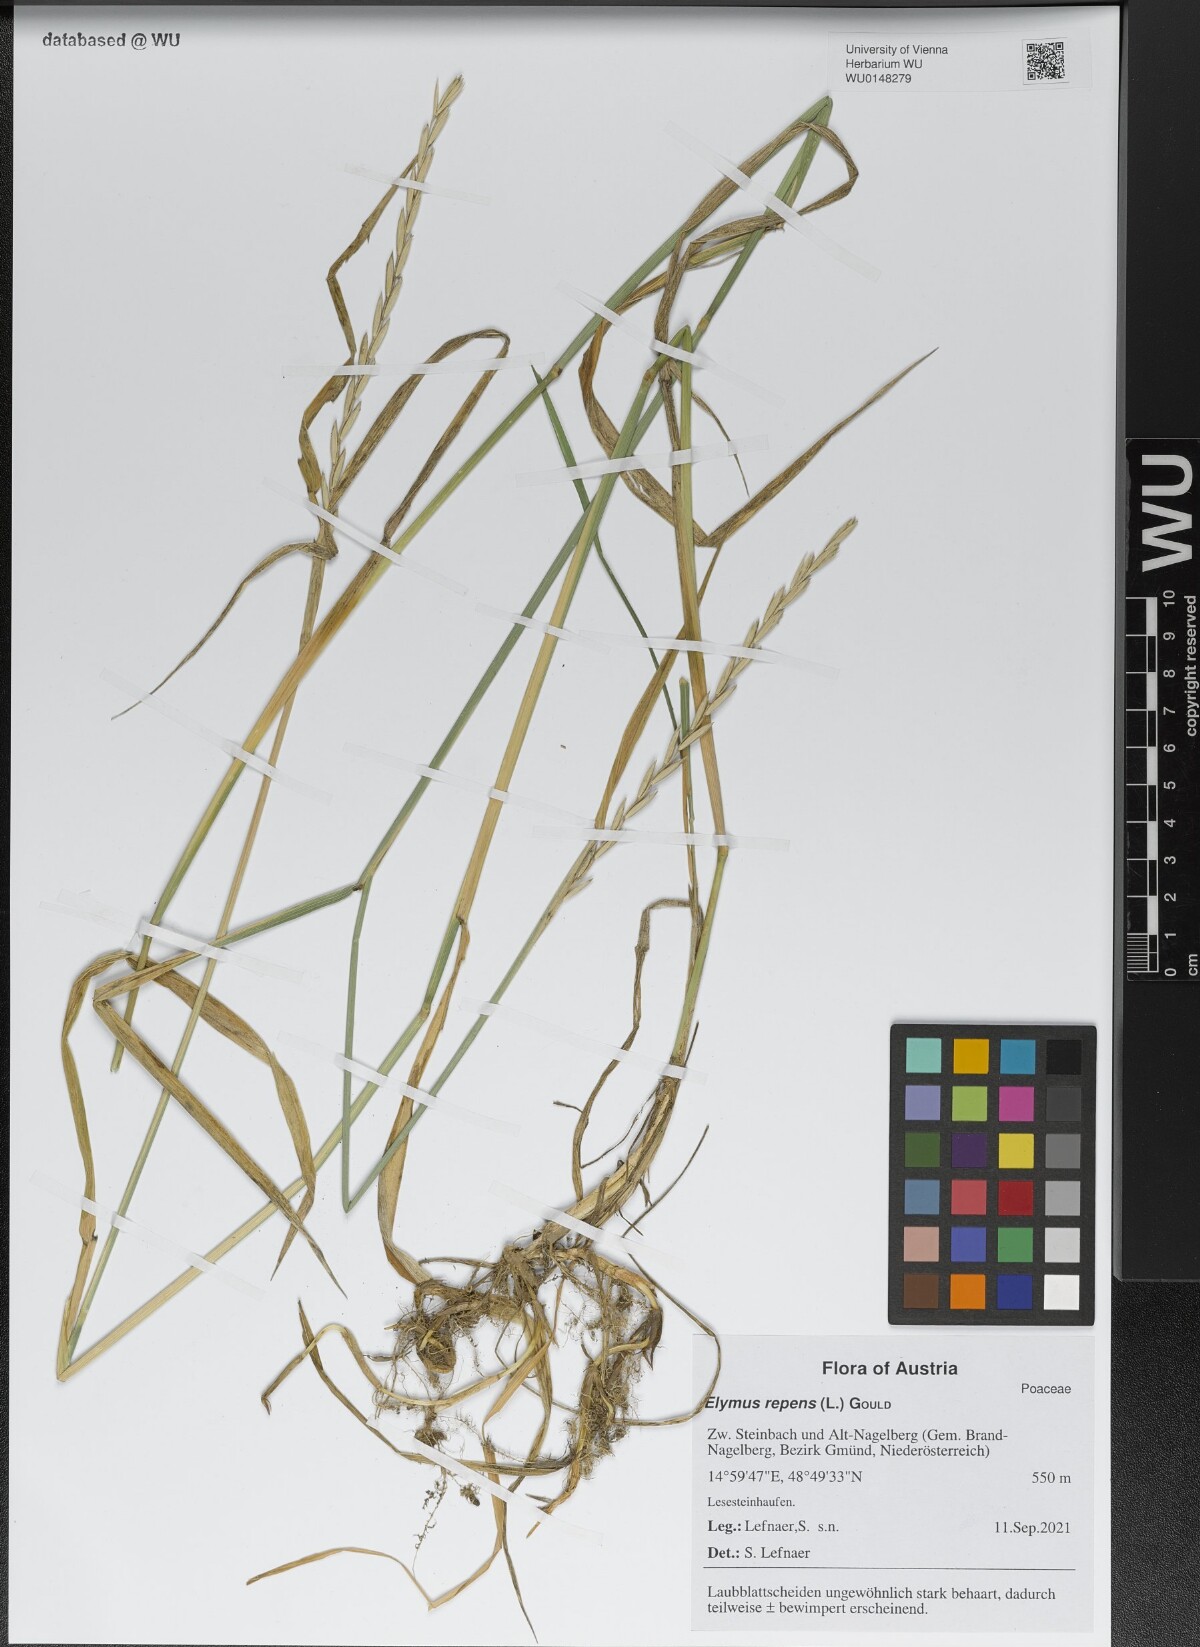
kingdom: Plantae
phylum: Tracheophyta
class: Liliopsida
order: Poales
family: Poaceae
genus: Elymus
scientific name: Elymus repens
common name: Quackgrass
